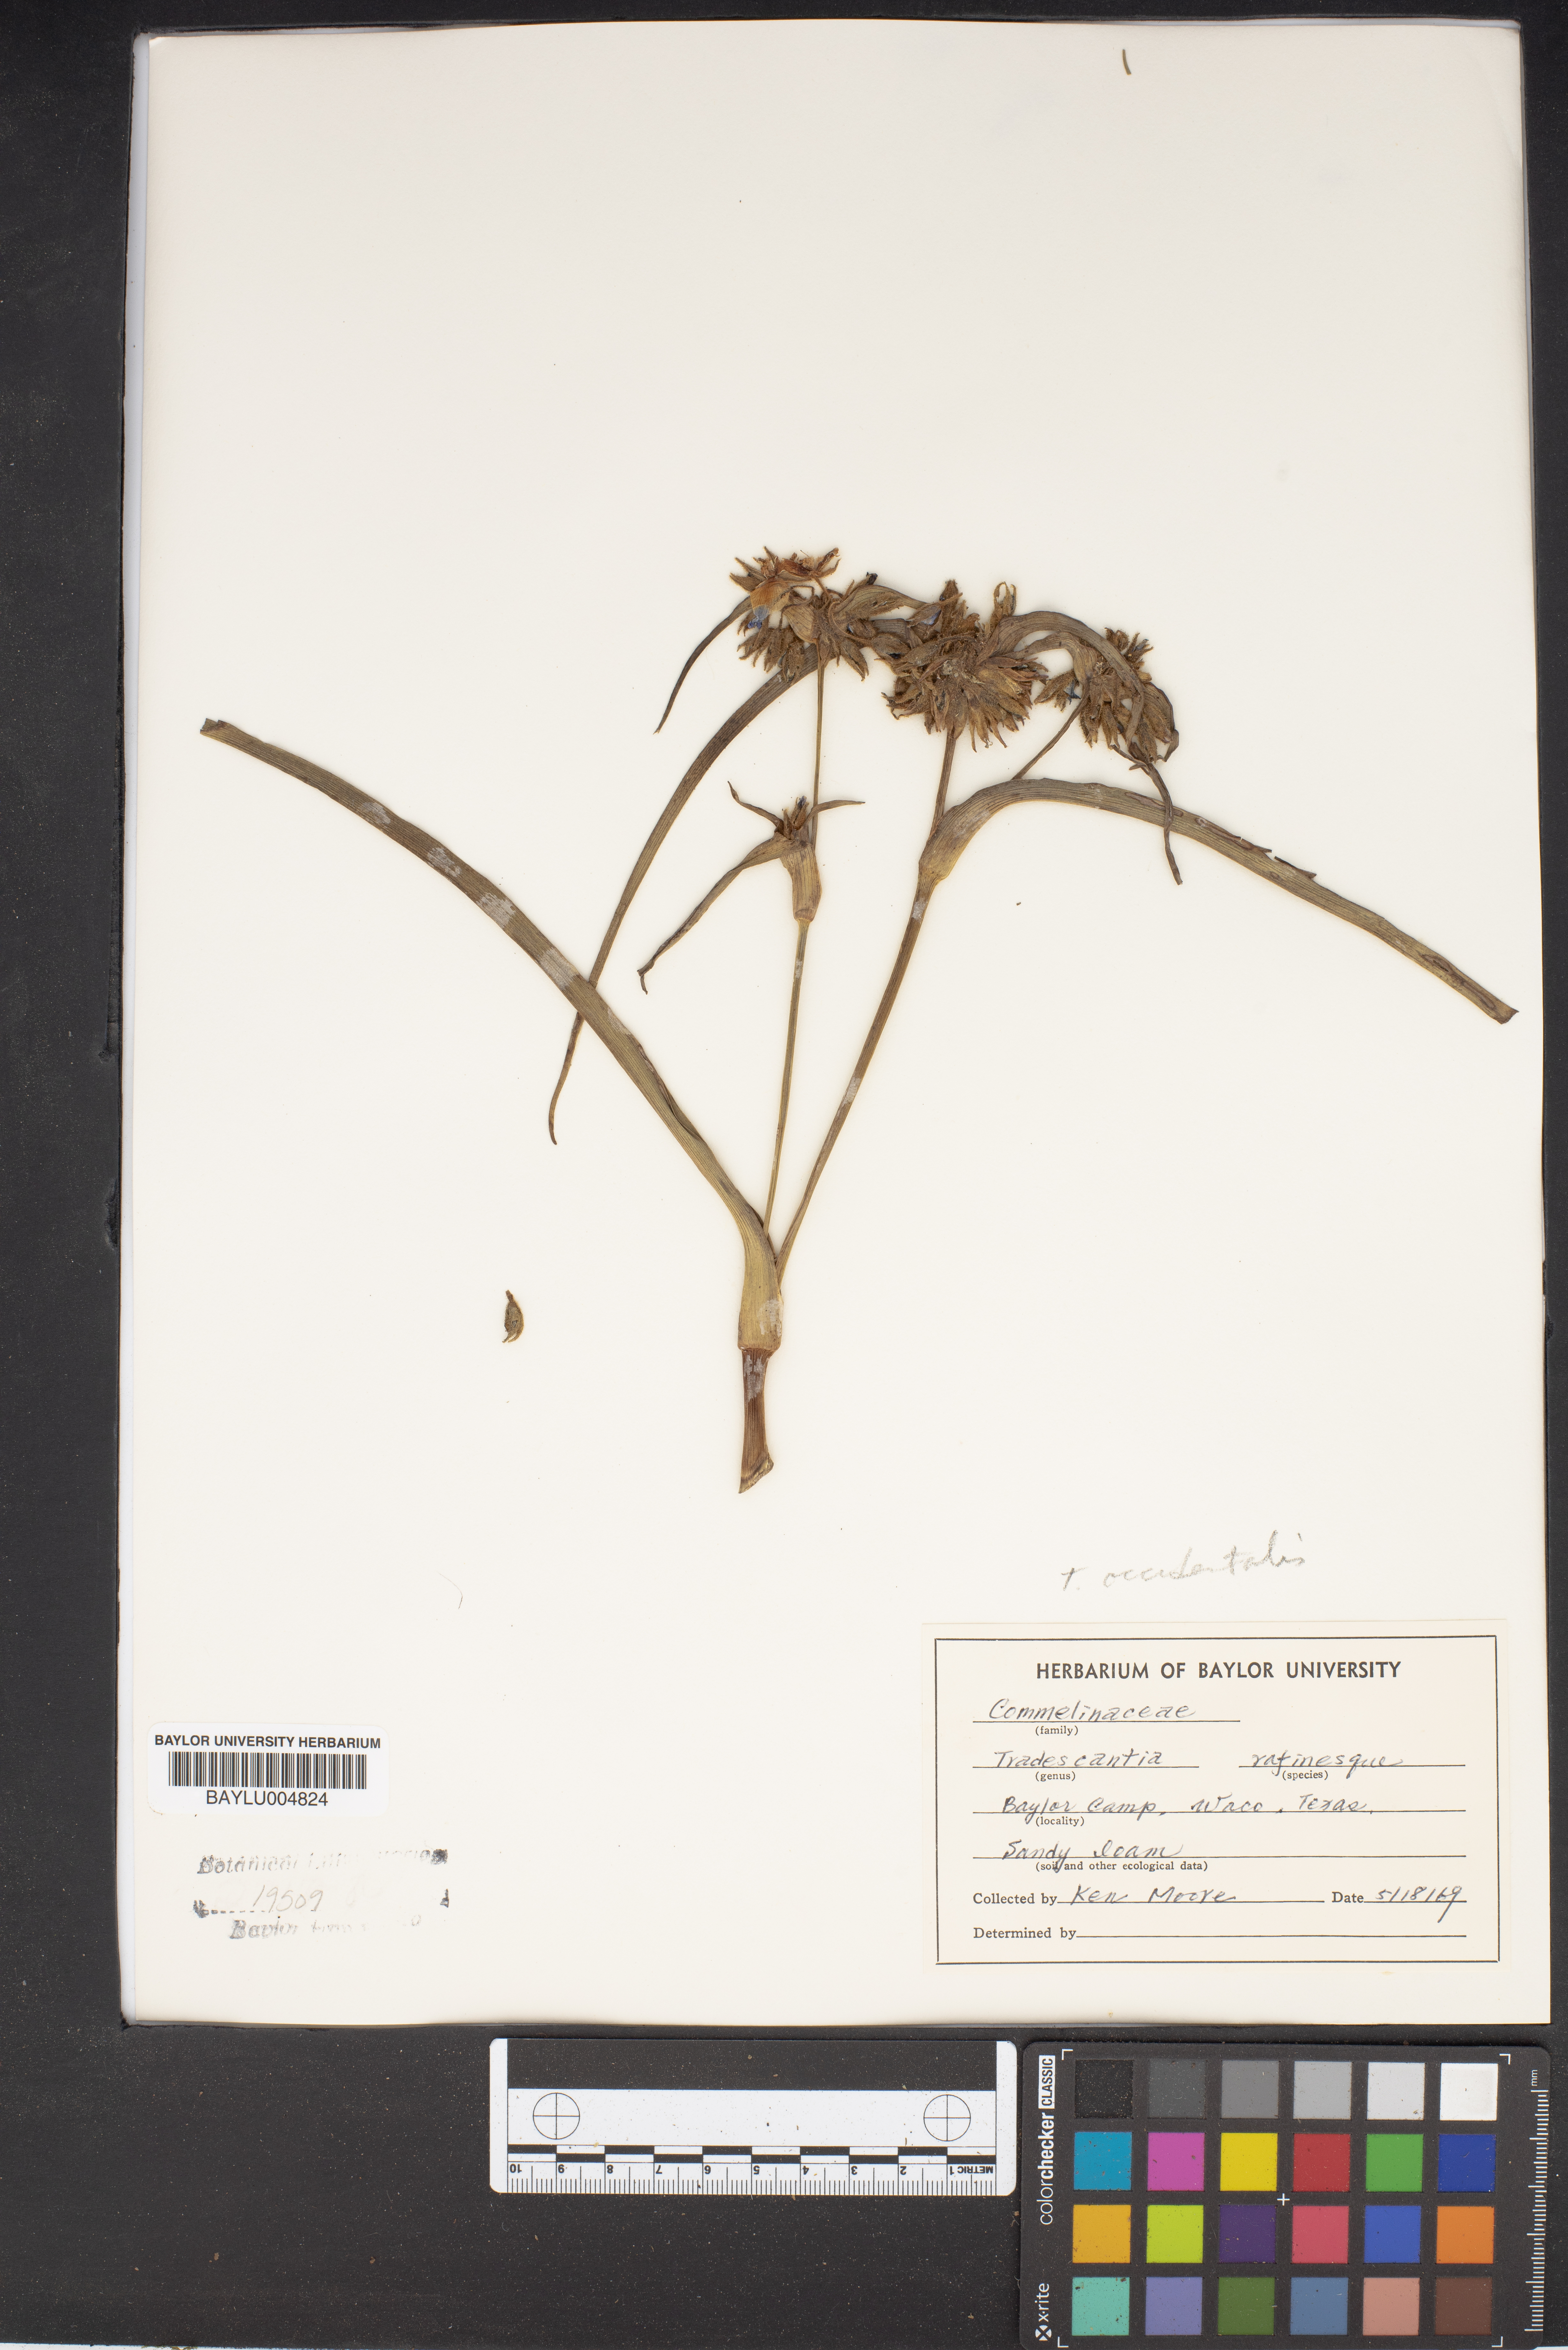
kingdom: Plantae
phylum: Tracheophyta
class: Liliopsida
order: Commelinales
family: Commelinaceae
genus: Tradescantia
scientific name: Tradescantia occidentalis
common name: Prairie spiderwort
